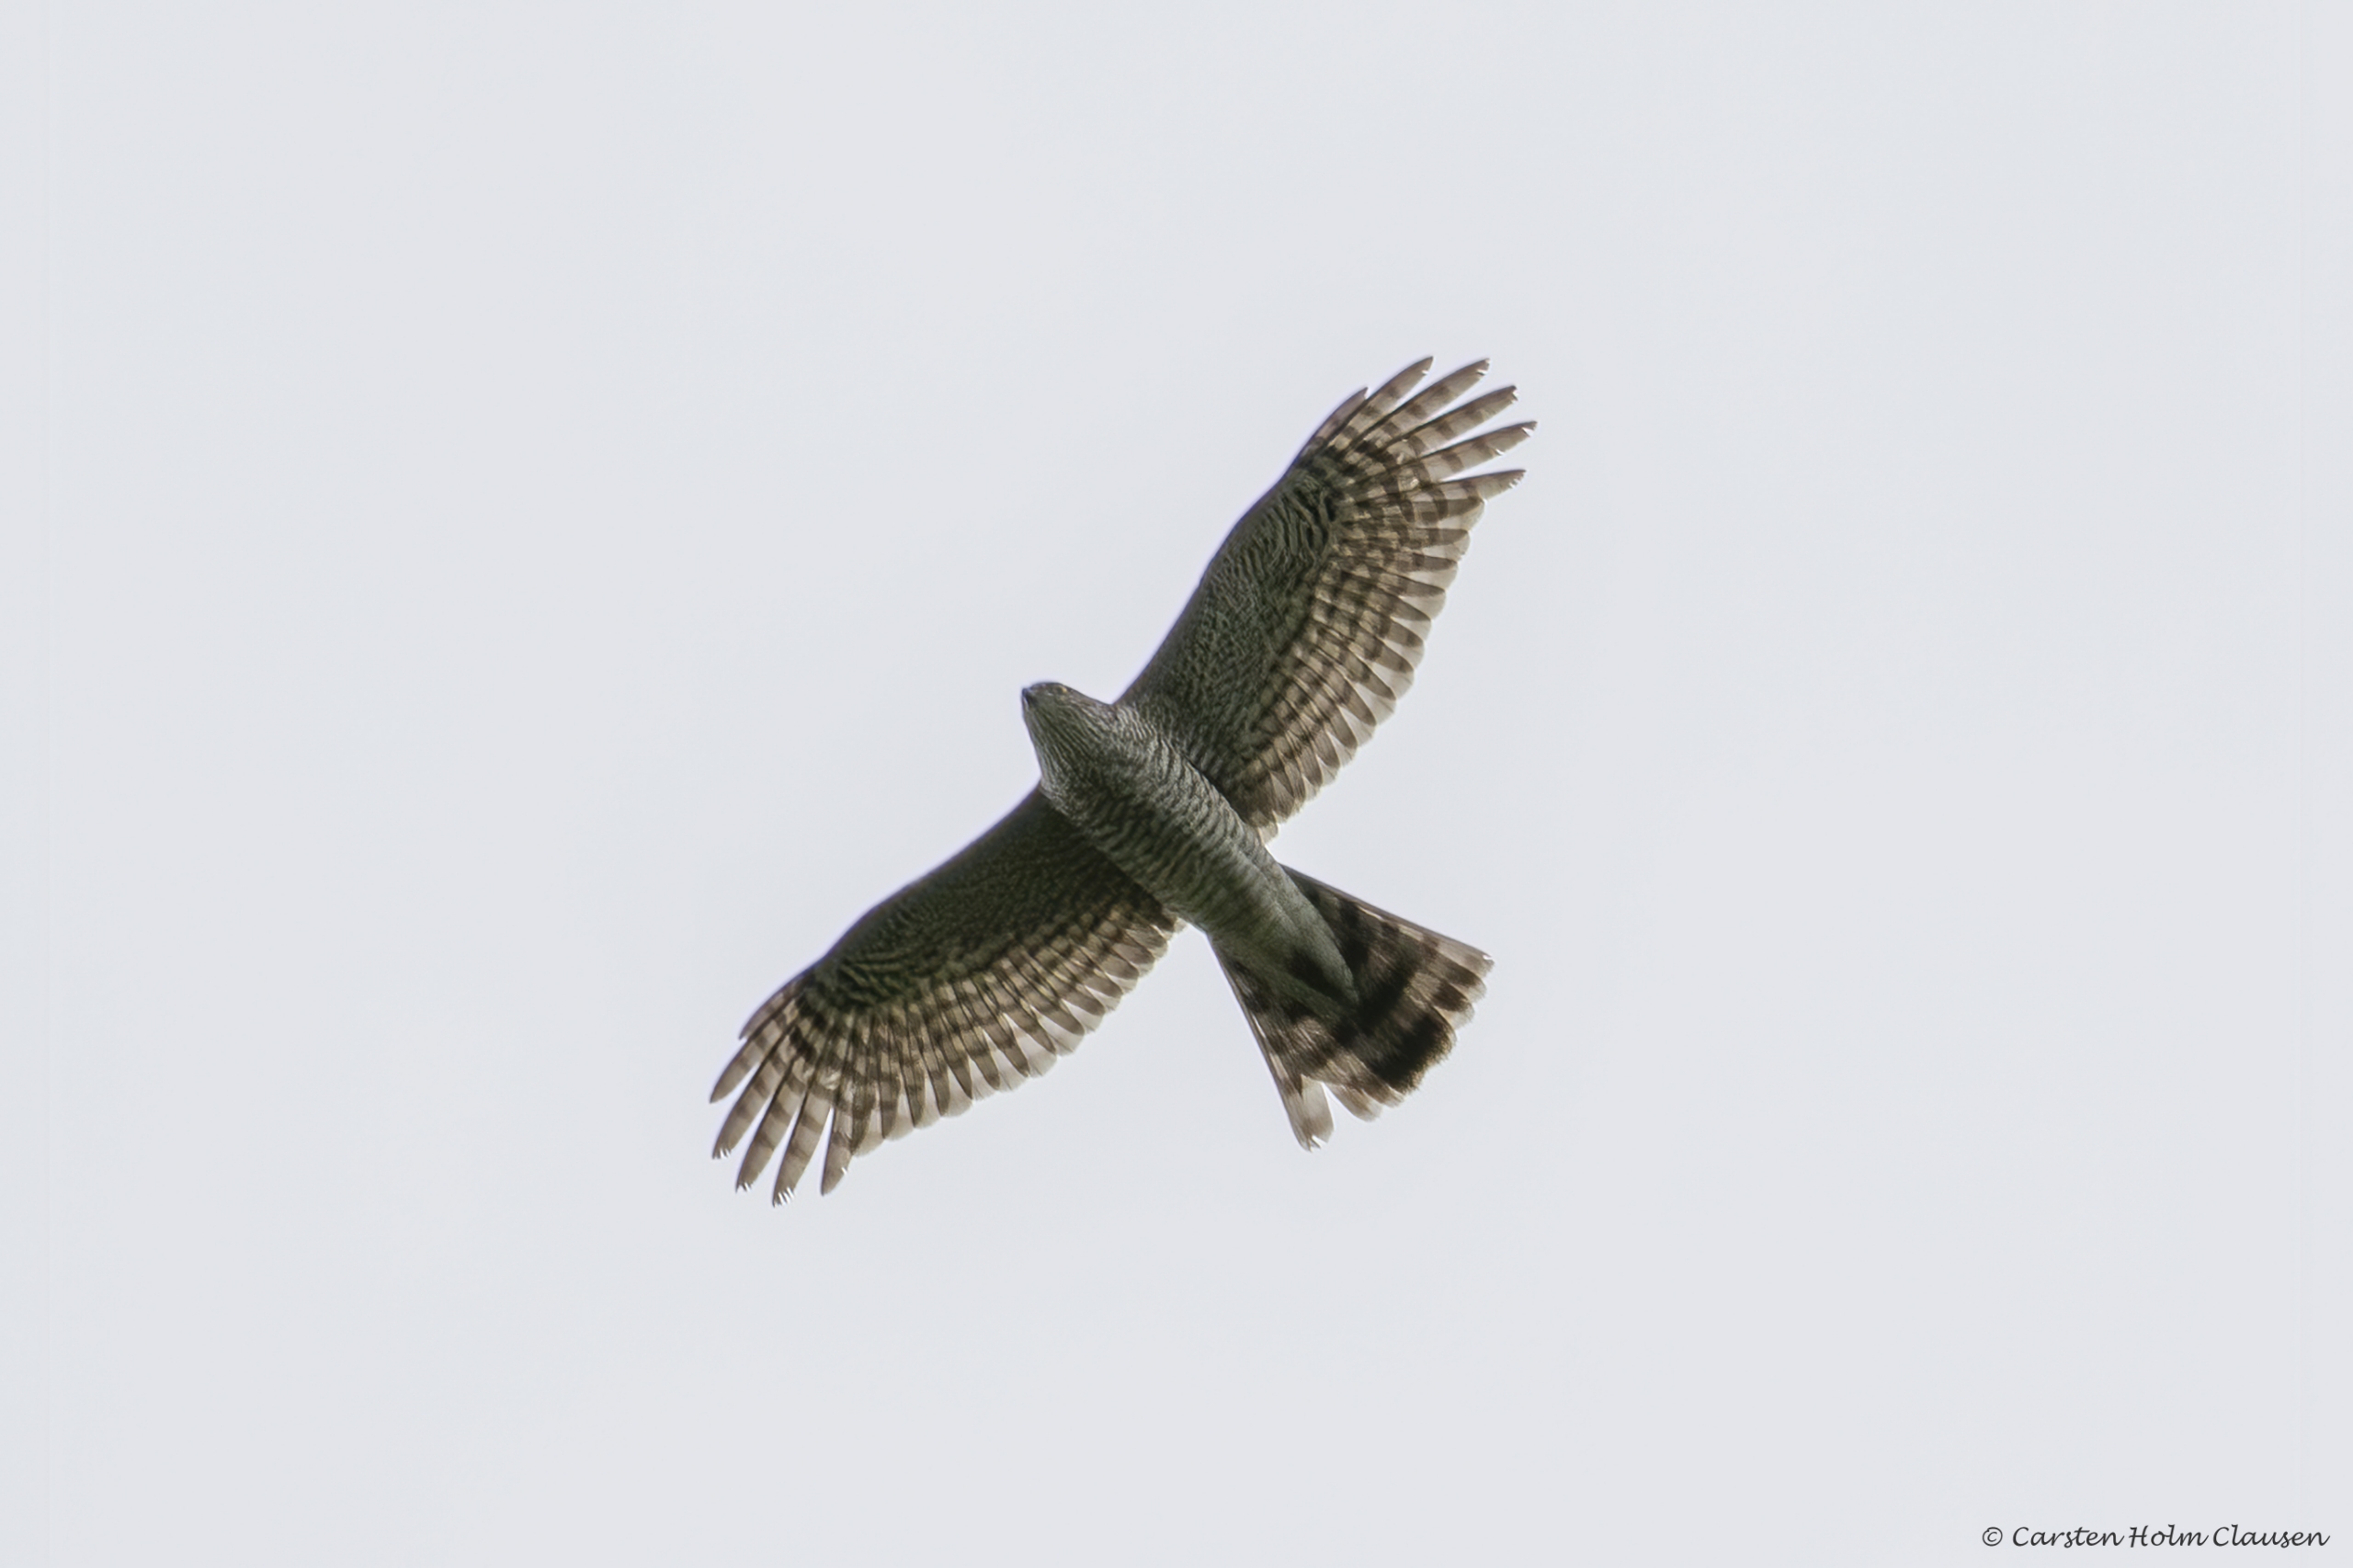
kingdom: Animalia
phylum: Chordata
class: Aves
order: Accipitriformes
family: Accipitridae
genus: Accipiter
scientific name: Accipiter nisus
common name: Spurvehøg
